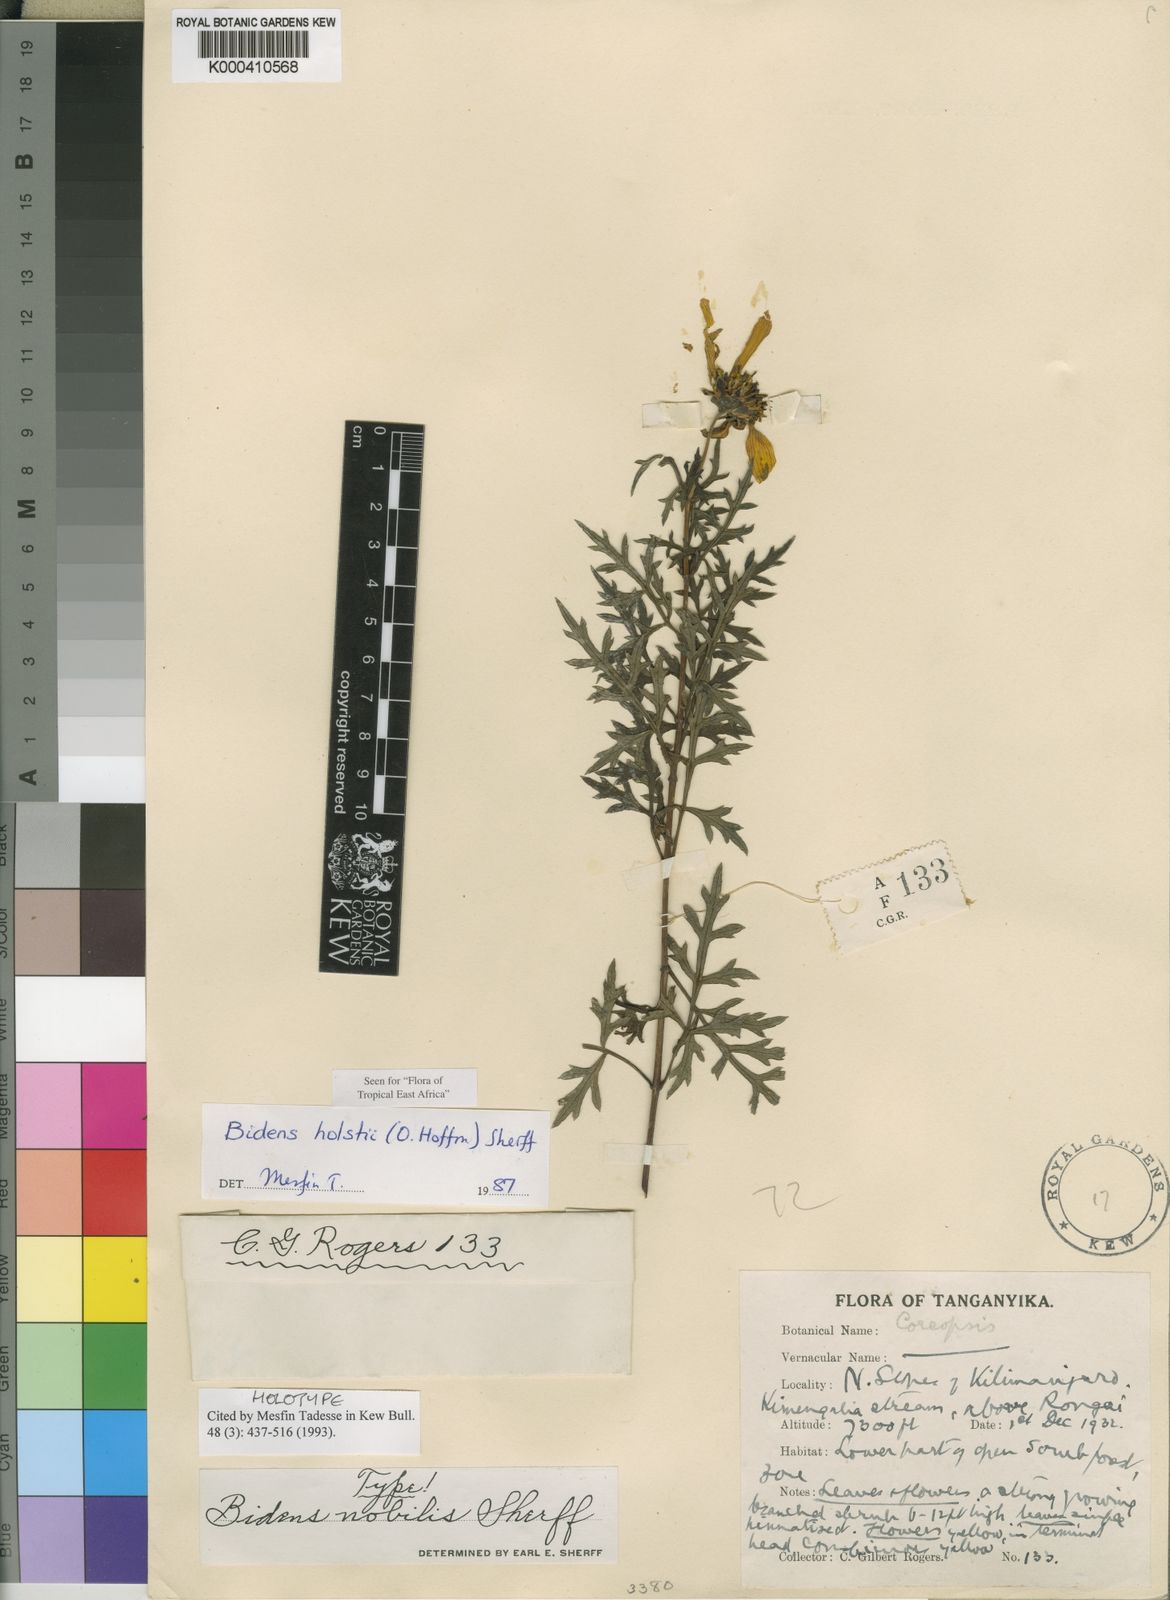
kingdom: Plantae
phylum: Tracheophyta
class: Magnoliopsida
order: Asterales
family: Asteraceae
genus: Bidens
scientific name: Bidens holstii
